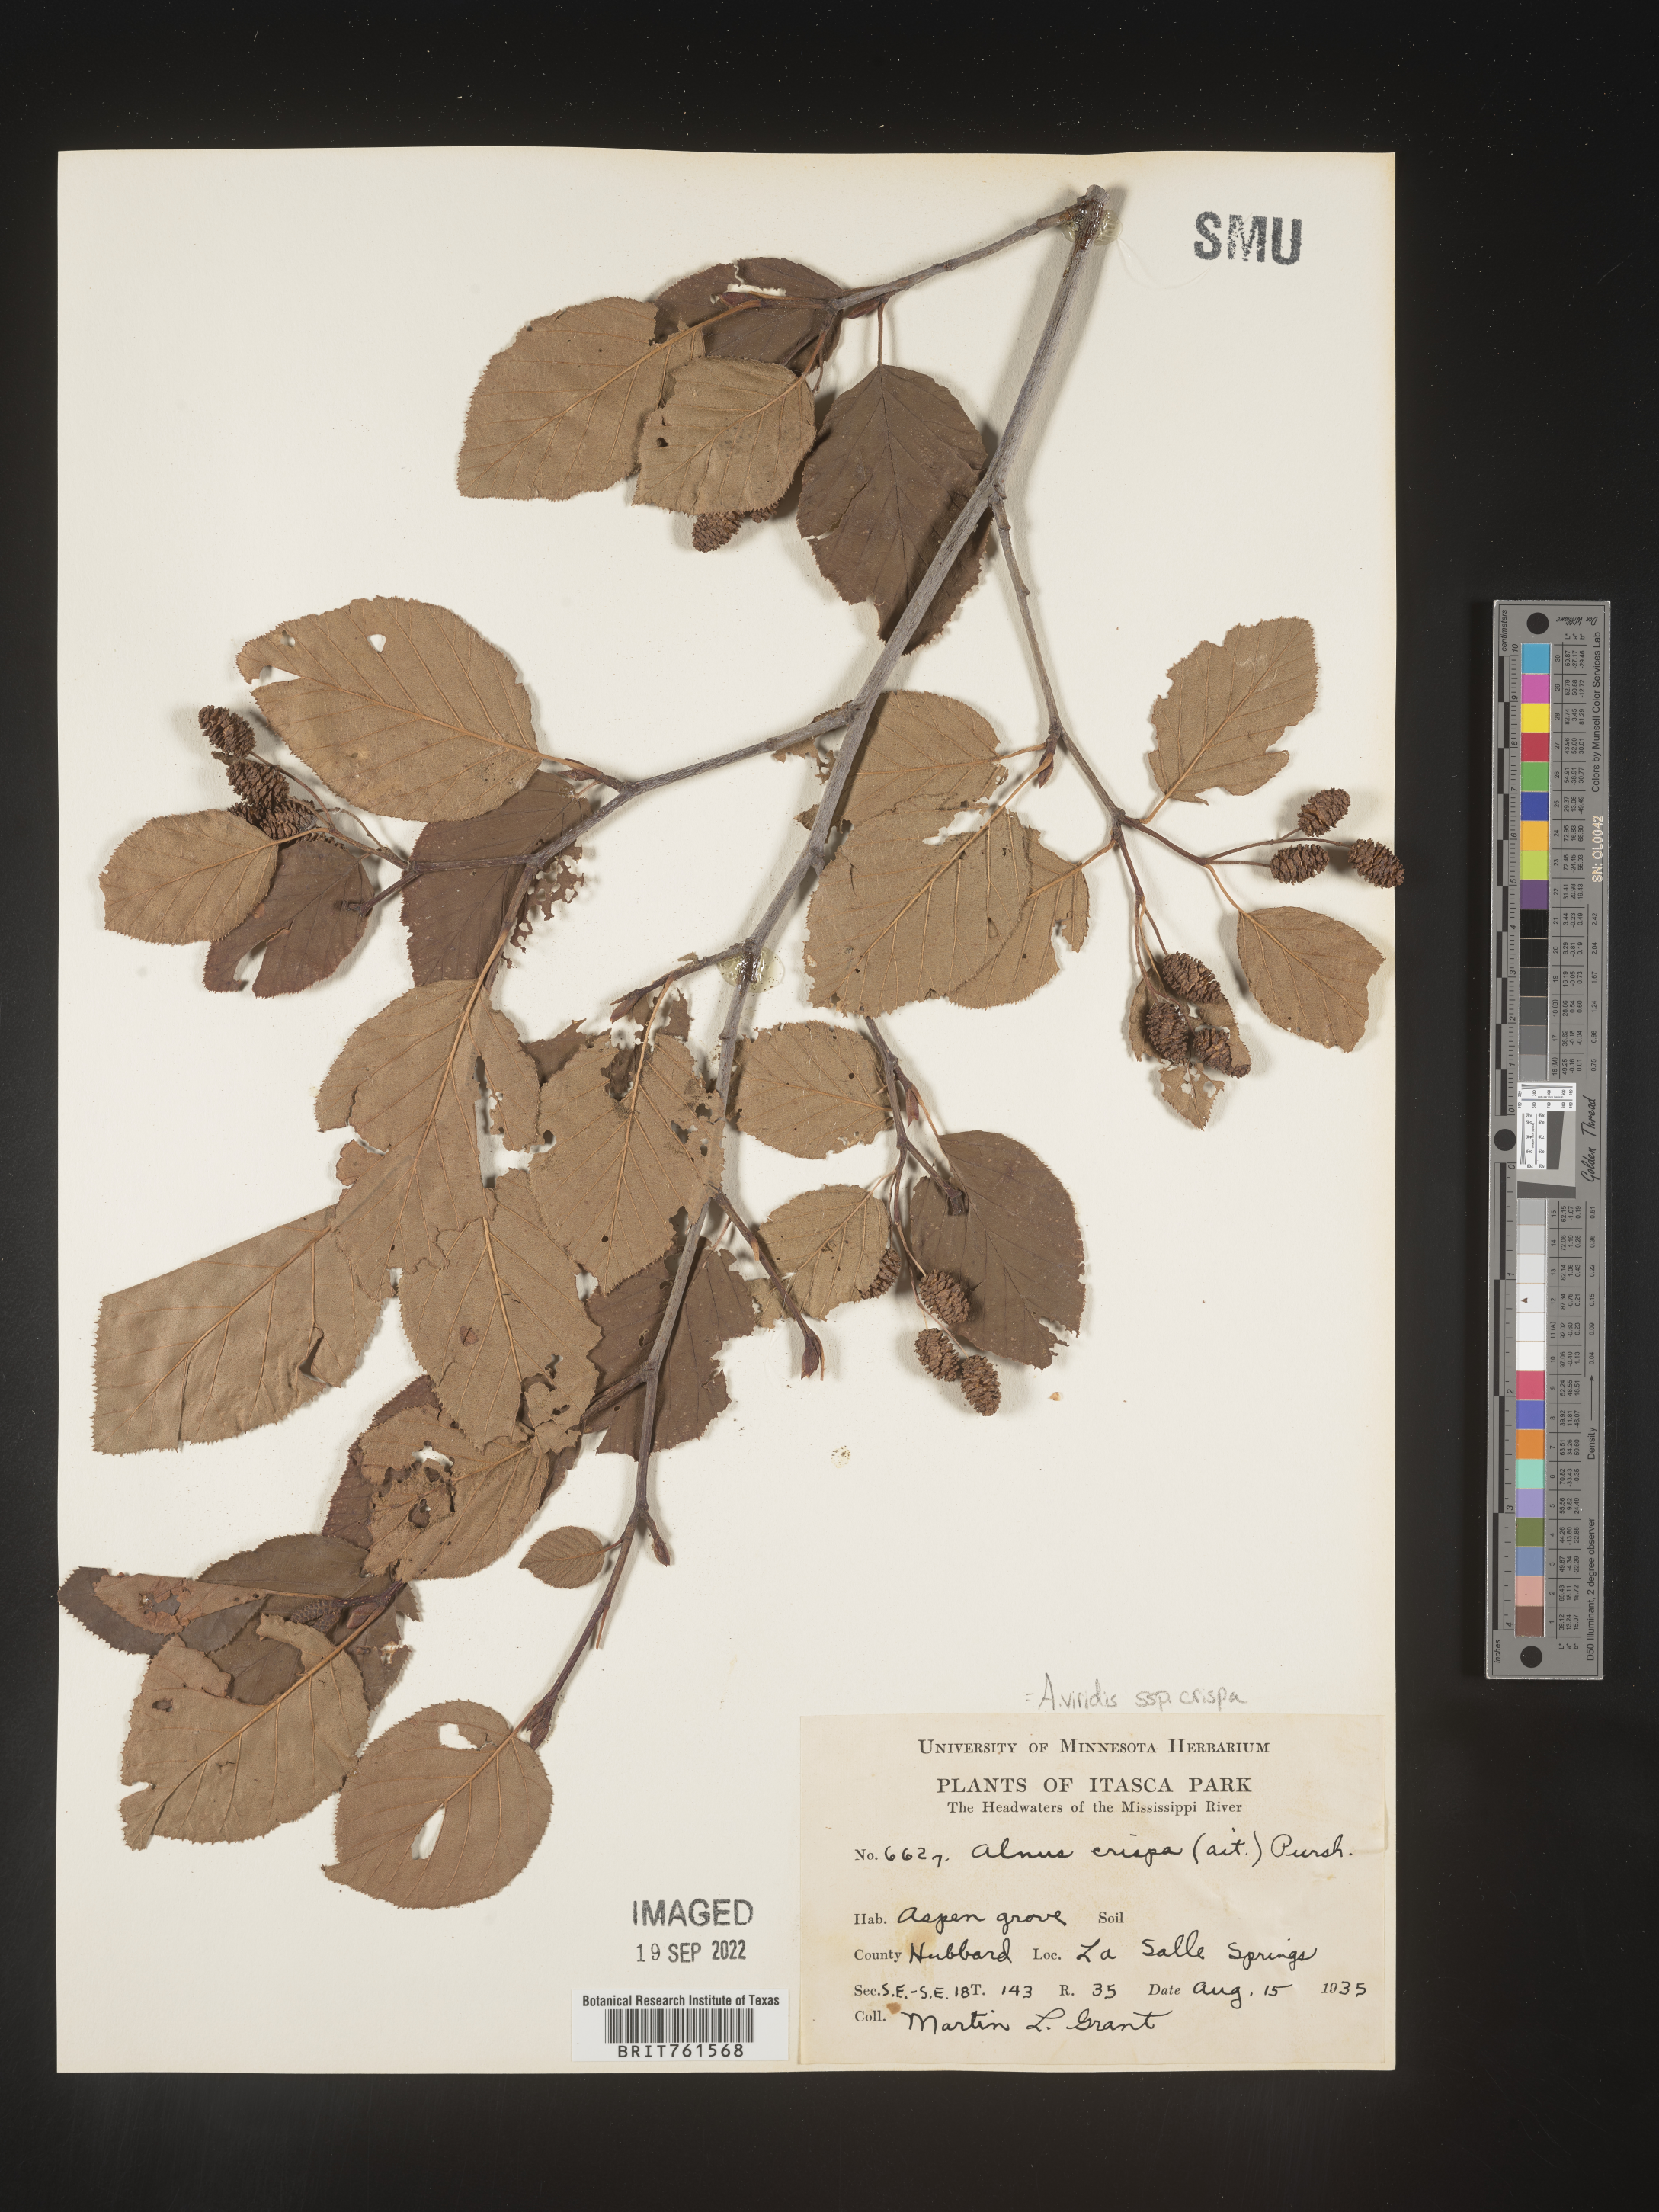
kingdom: Plantae
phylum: Tracheophyta
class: Magnoliopsida
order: Fagales
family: Betulaceae
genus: Alnus
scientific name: Alnus alnobetula
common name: Green alder
